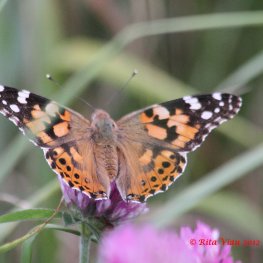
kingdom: Animalia
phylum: Arthropoda
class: Insecta
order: Lepidoptera
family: Nymphalidae
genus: Vanessa
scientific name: Vanessa cardui
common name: Painted Lady
